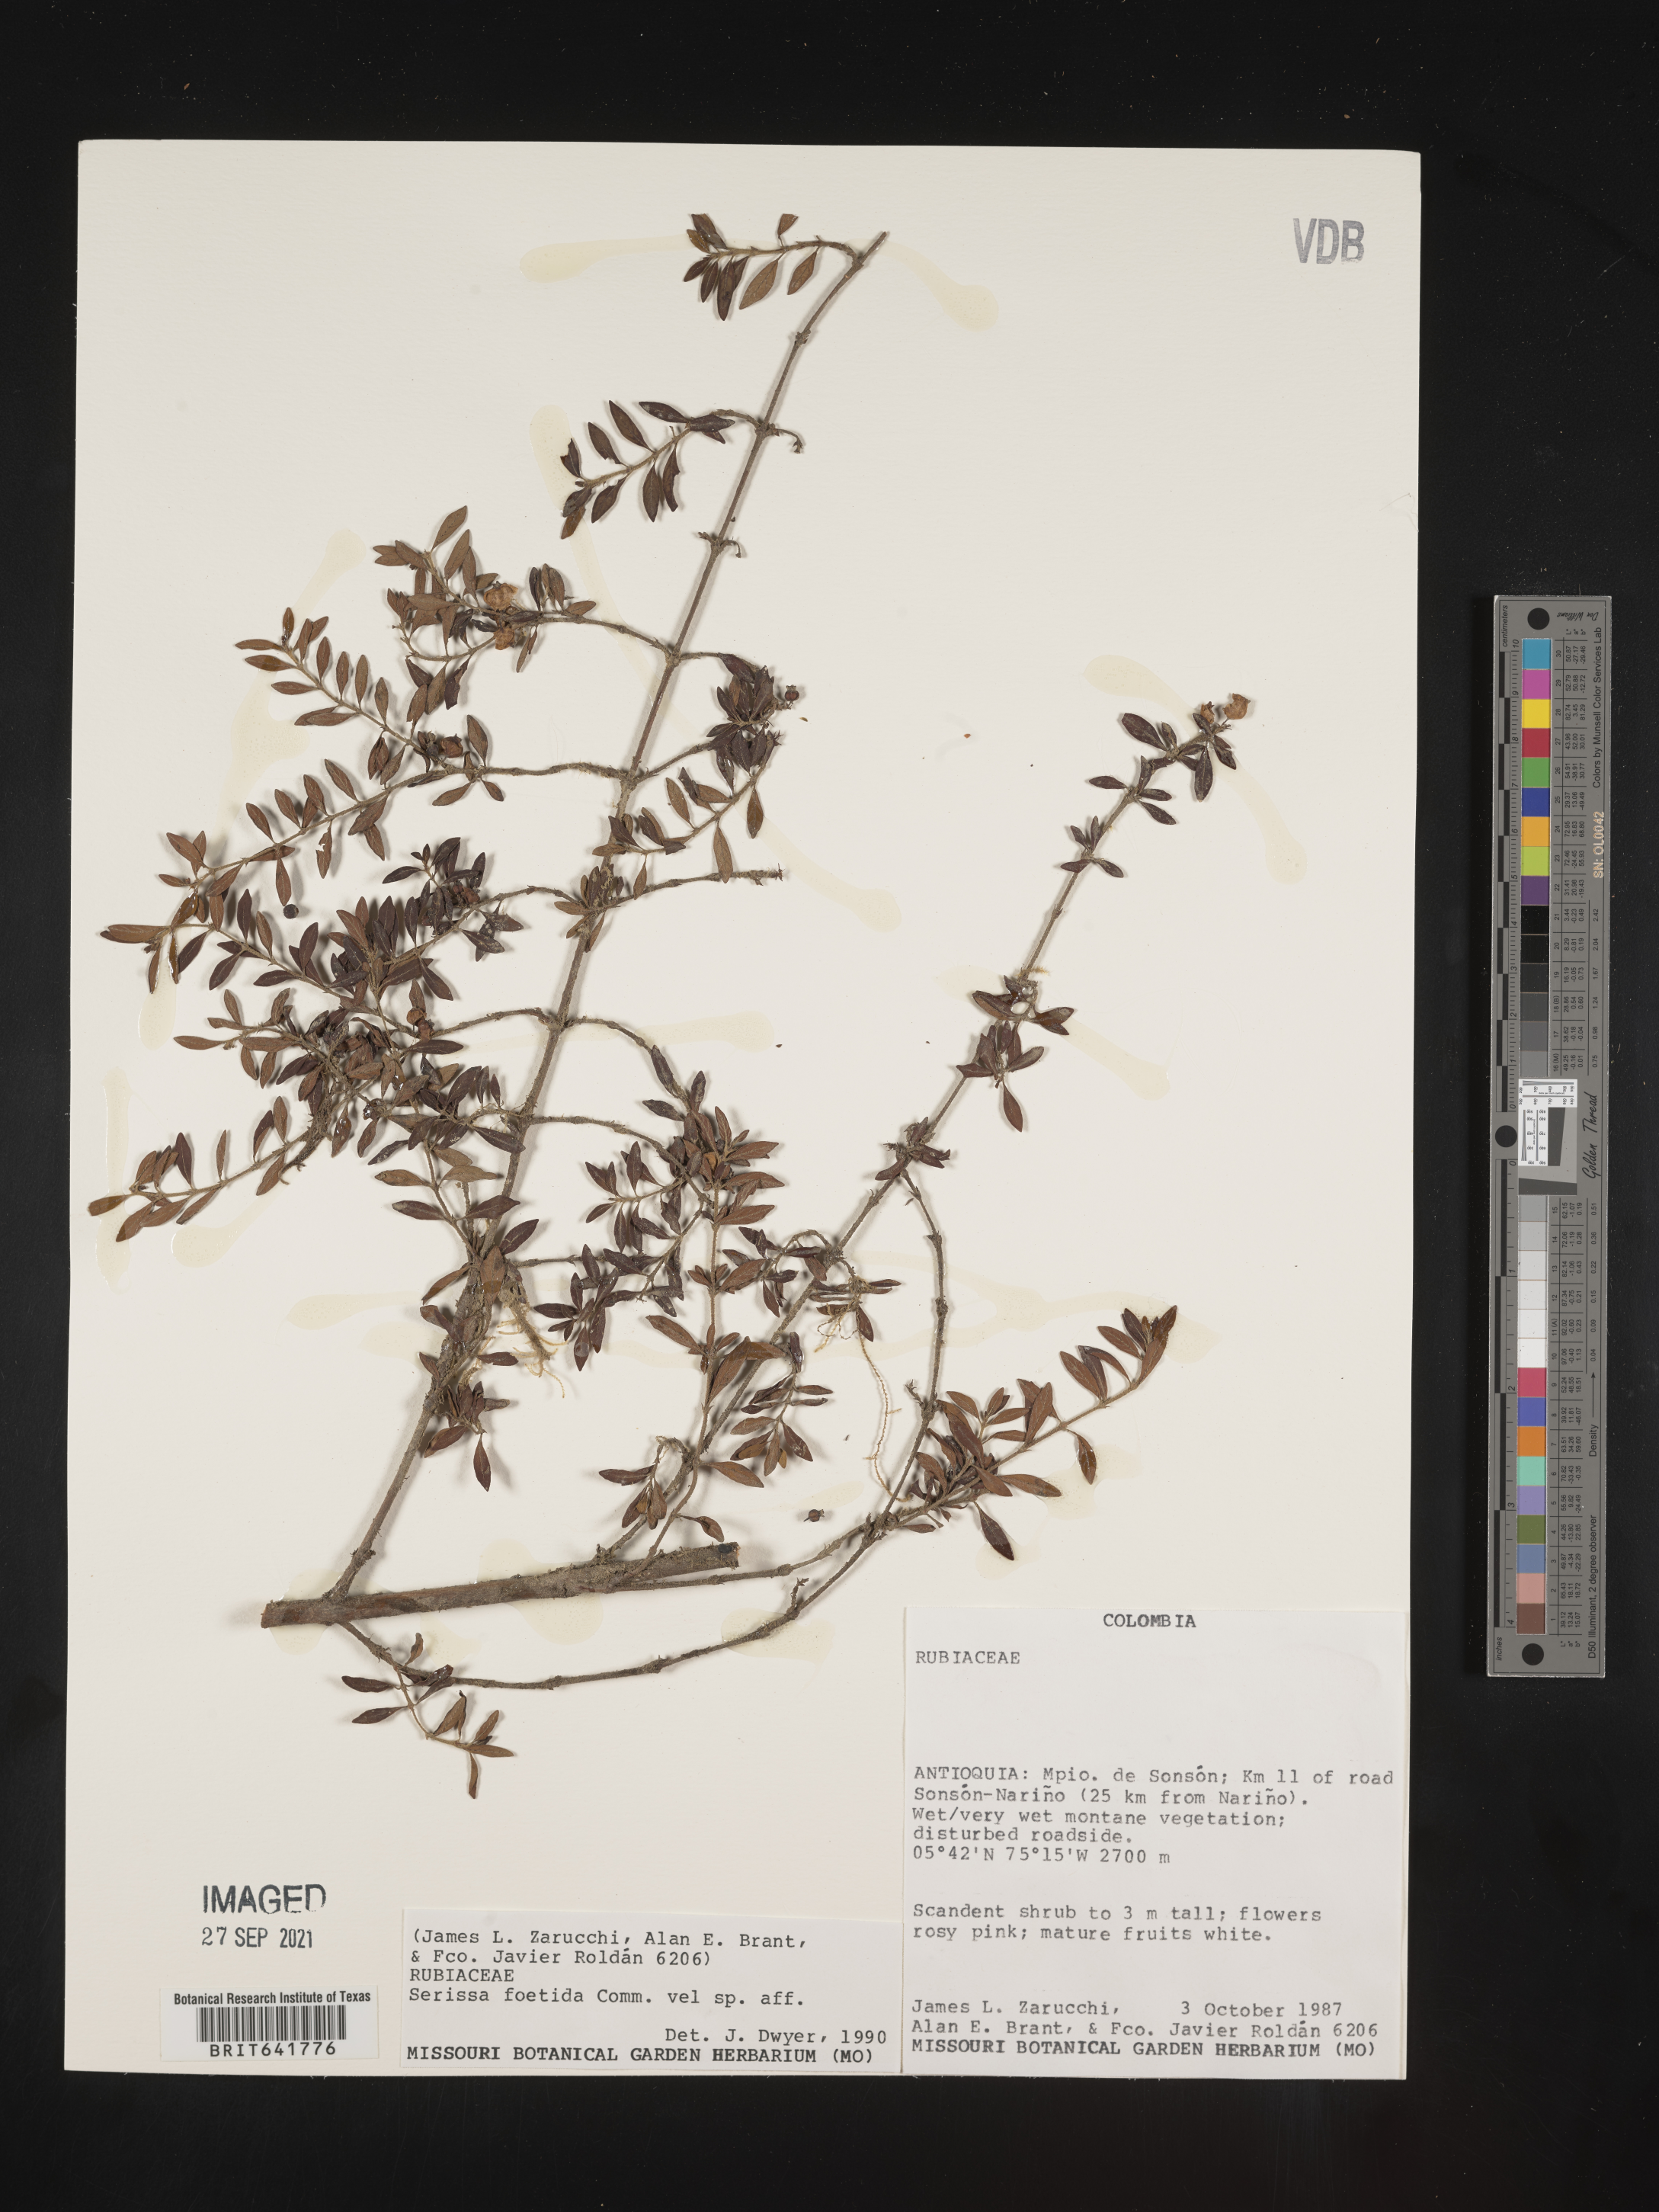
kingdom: Plantae
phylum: Tracheophyta
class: Magnoliopsida
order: Gentianales
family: Rubiaceae
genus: Buchozia
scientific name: Buchozia
